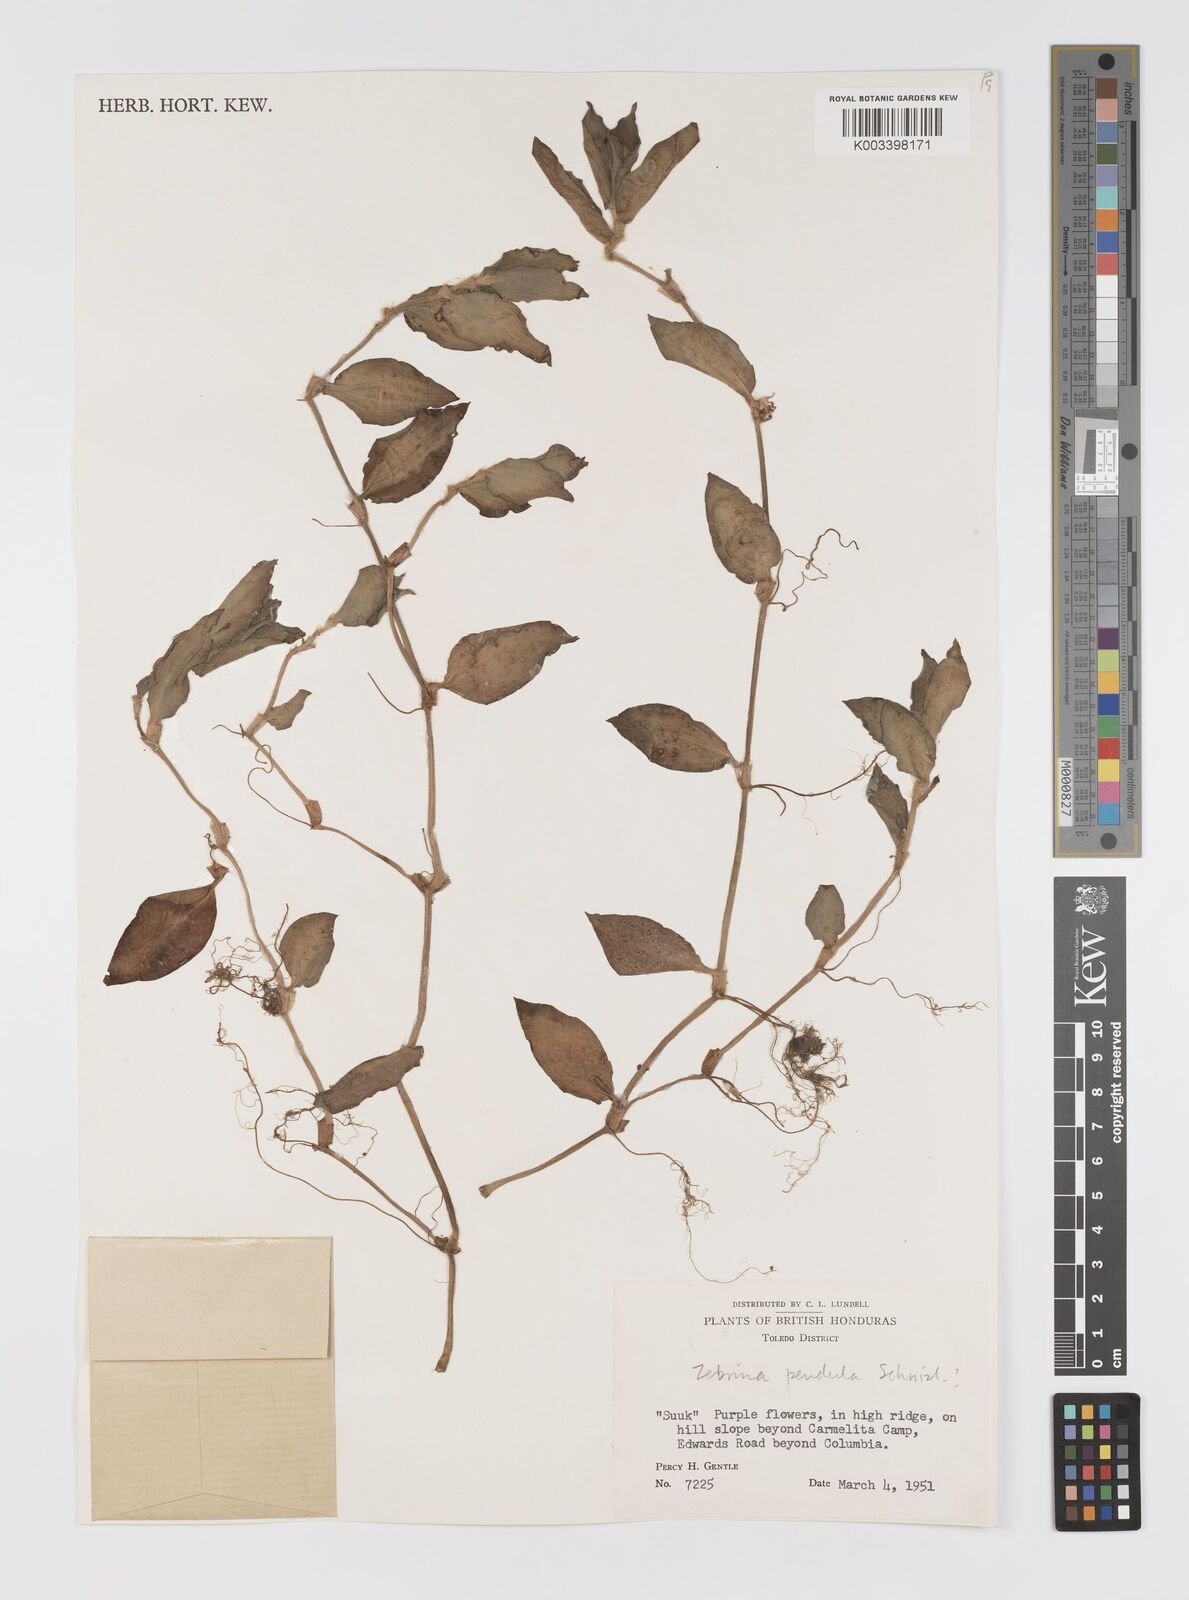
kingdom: Plantae
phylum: Tracheophyta
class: Liliopsida
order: Commelinales
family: Commelinaceae
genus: Tradescantia
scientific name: Tradescantia zebrina
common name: Inchplant
